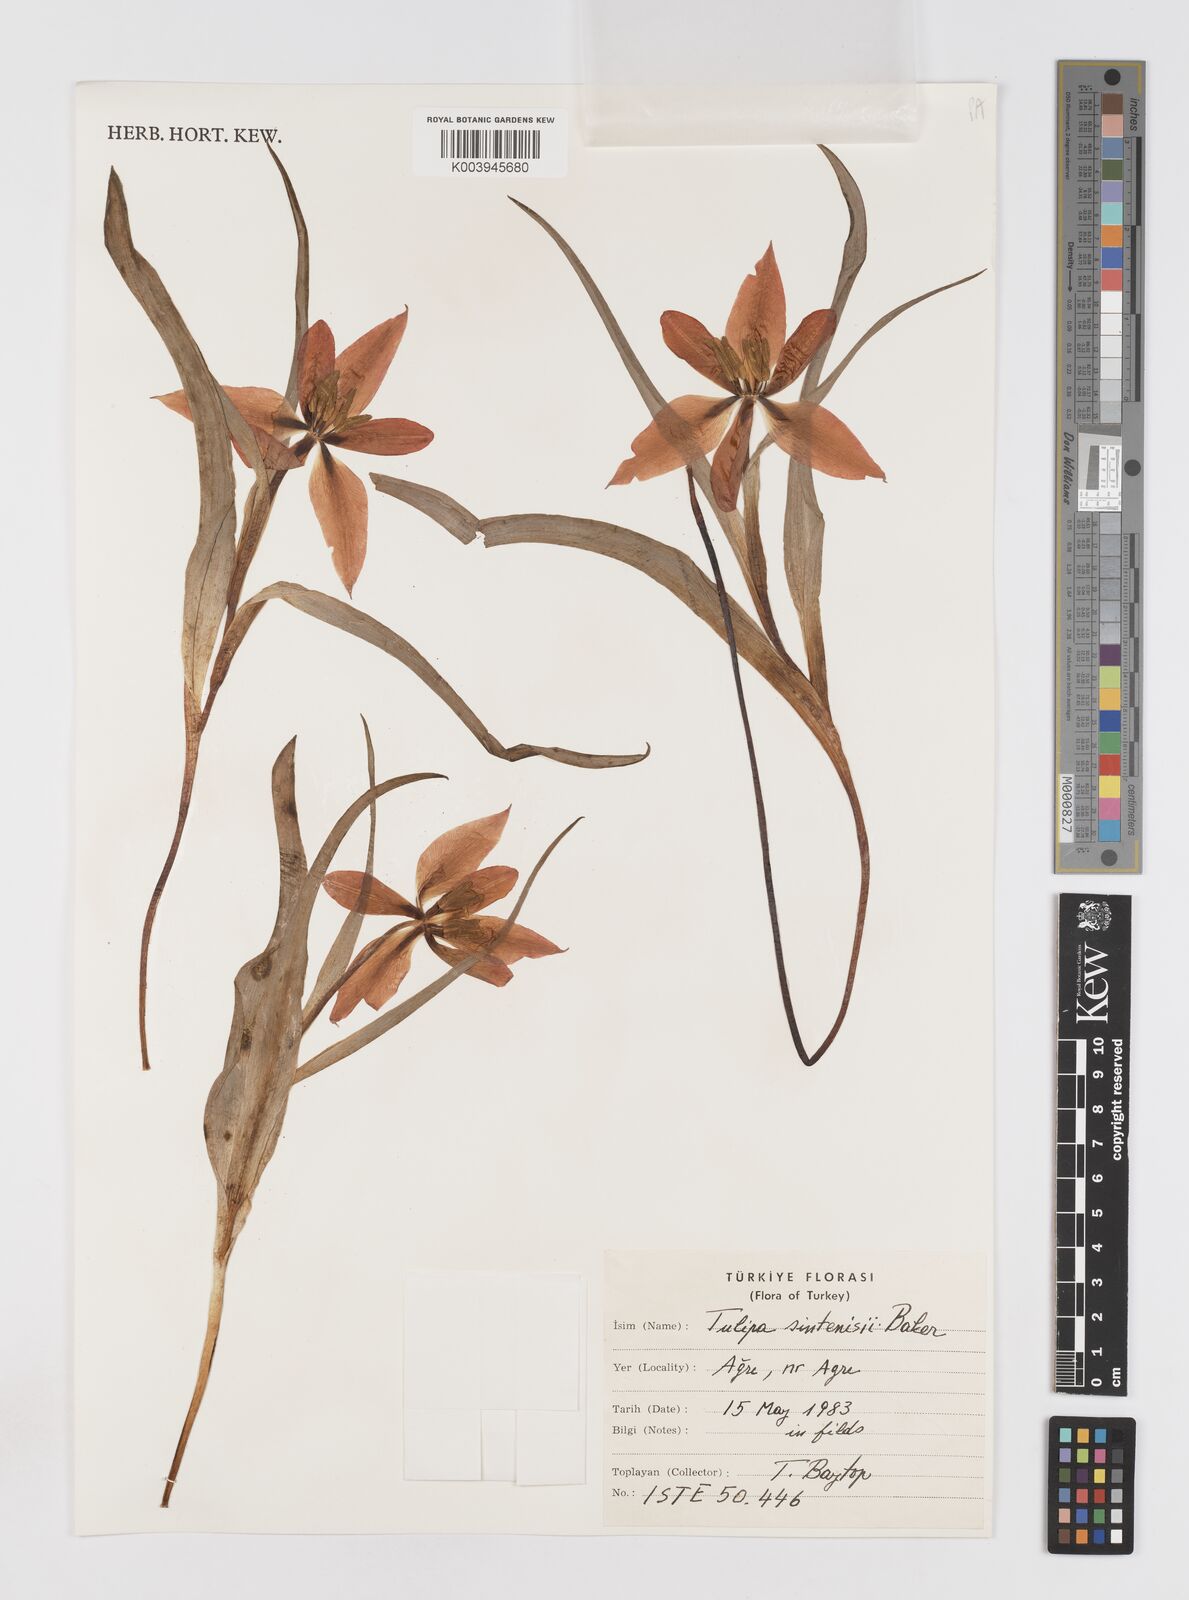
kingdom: Plantae
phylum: Tracheophyta
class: Liliopsida
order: Liliales
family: Liliaceae
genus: Tulipa
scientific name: Tulipa aleppensis
